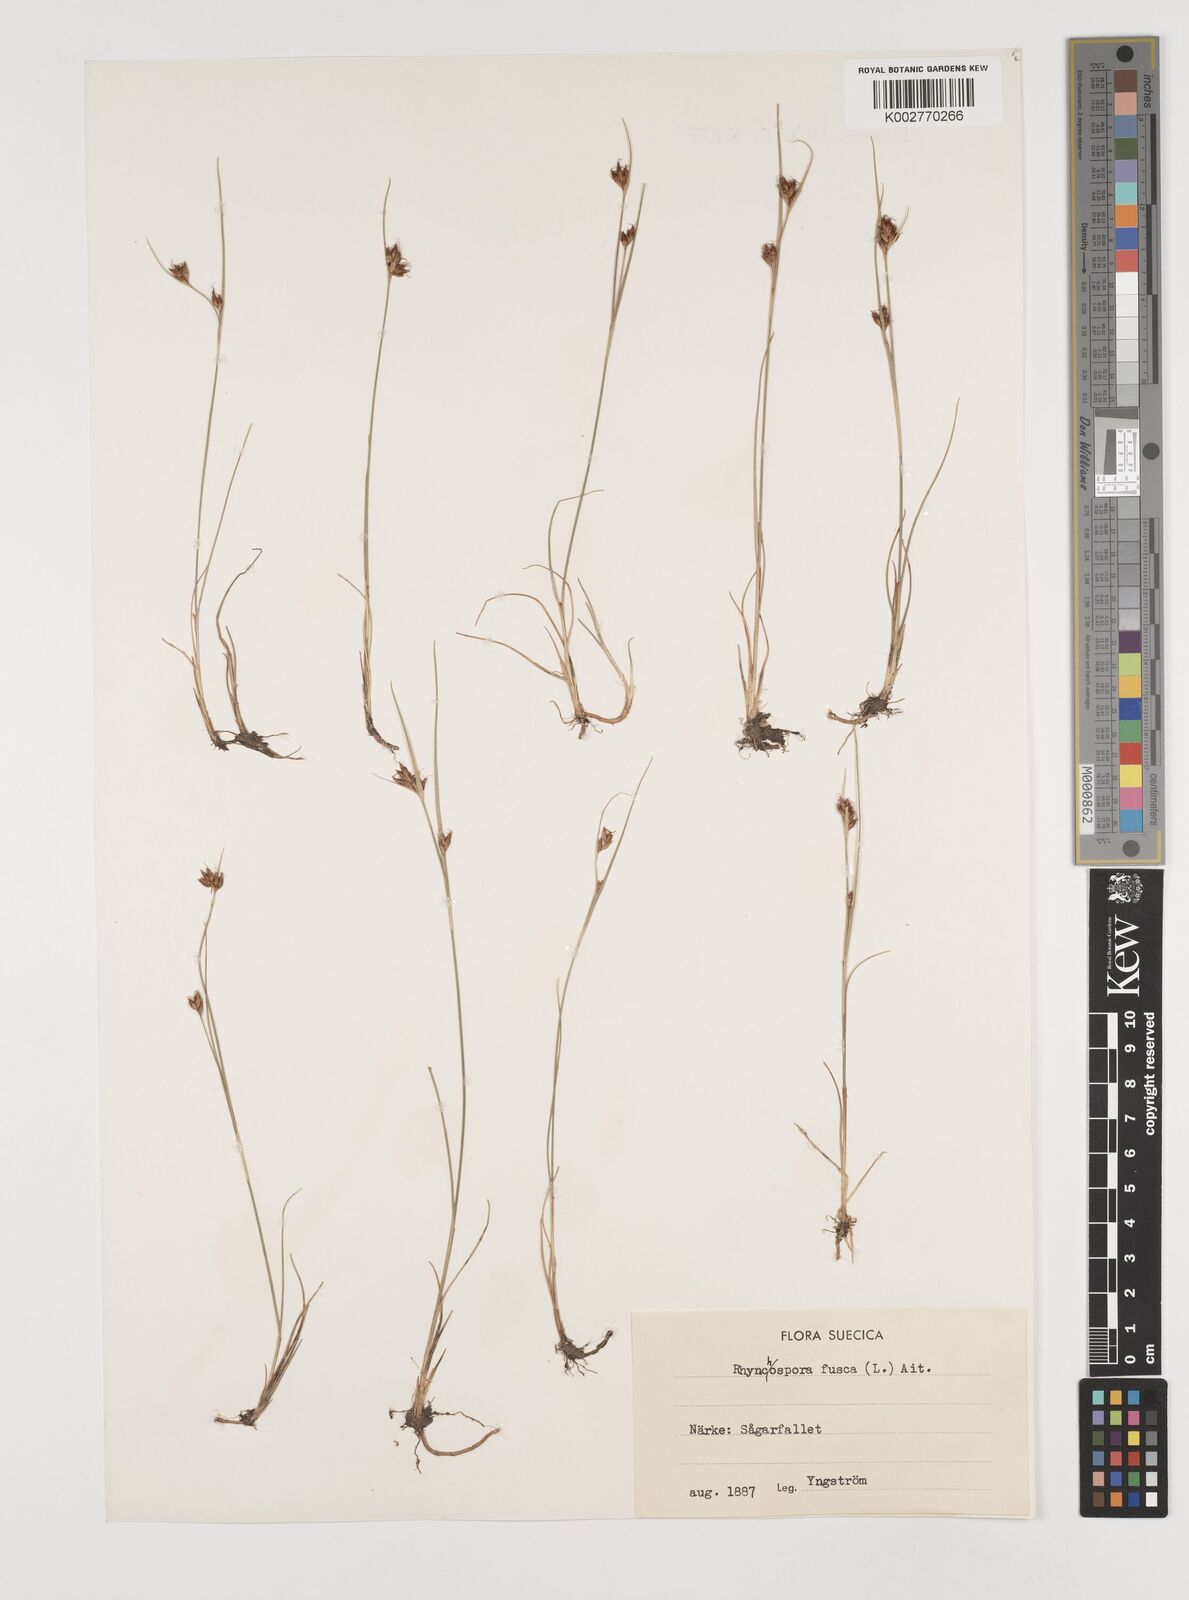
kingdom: Plantae
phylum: Tracheophyta
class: Liliopsida
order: Poales
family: Cyperaceae
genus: Rhynchospora
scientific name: Rhynchospora fusca
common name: Brown beak-sedge
